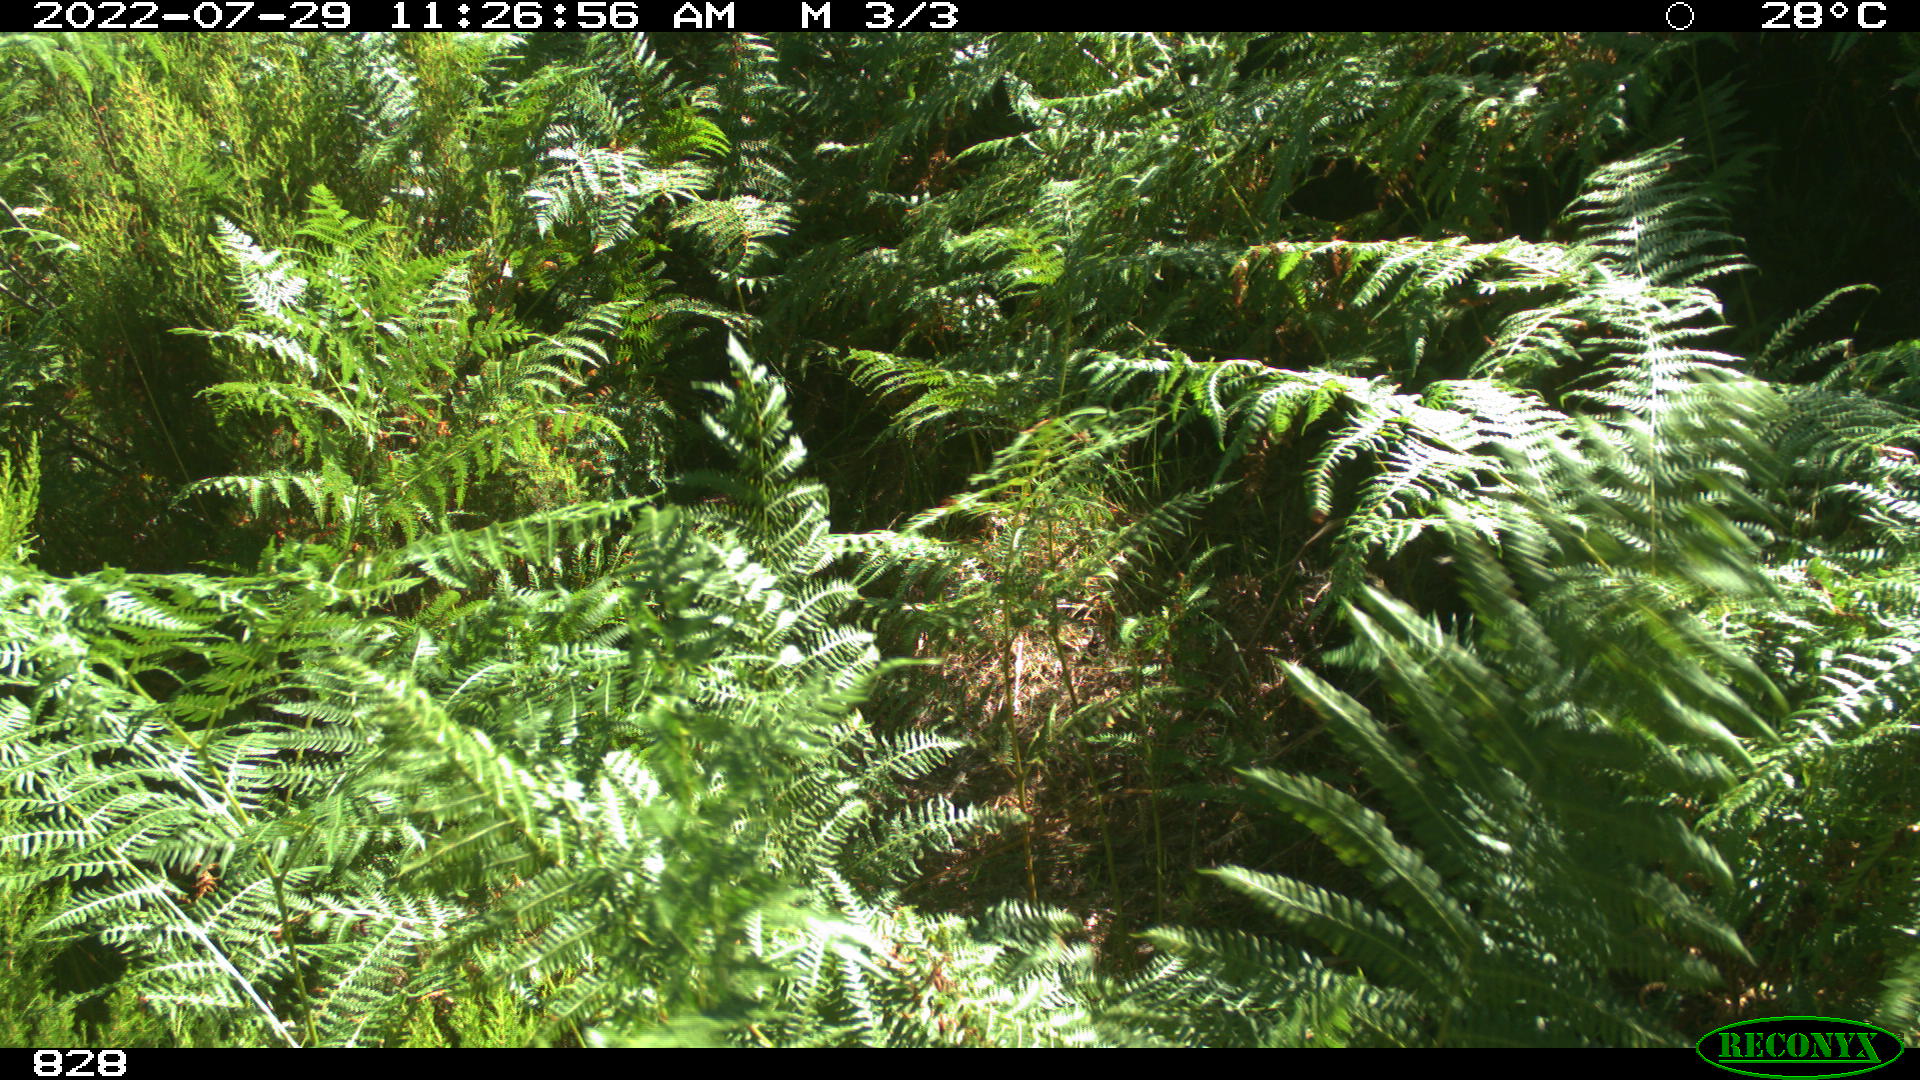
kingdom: Animalia
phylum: Chordata
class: Mammalia
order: Perissodactyla
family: Equidae
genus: Equus
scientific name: Equus caballus
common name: Horse
